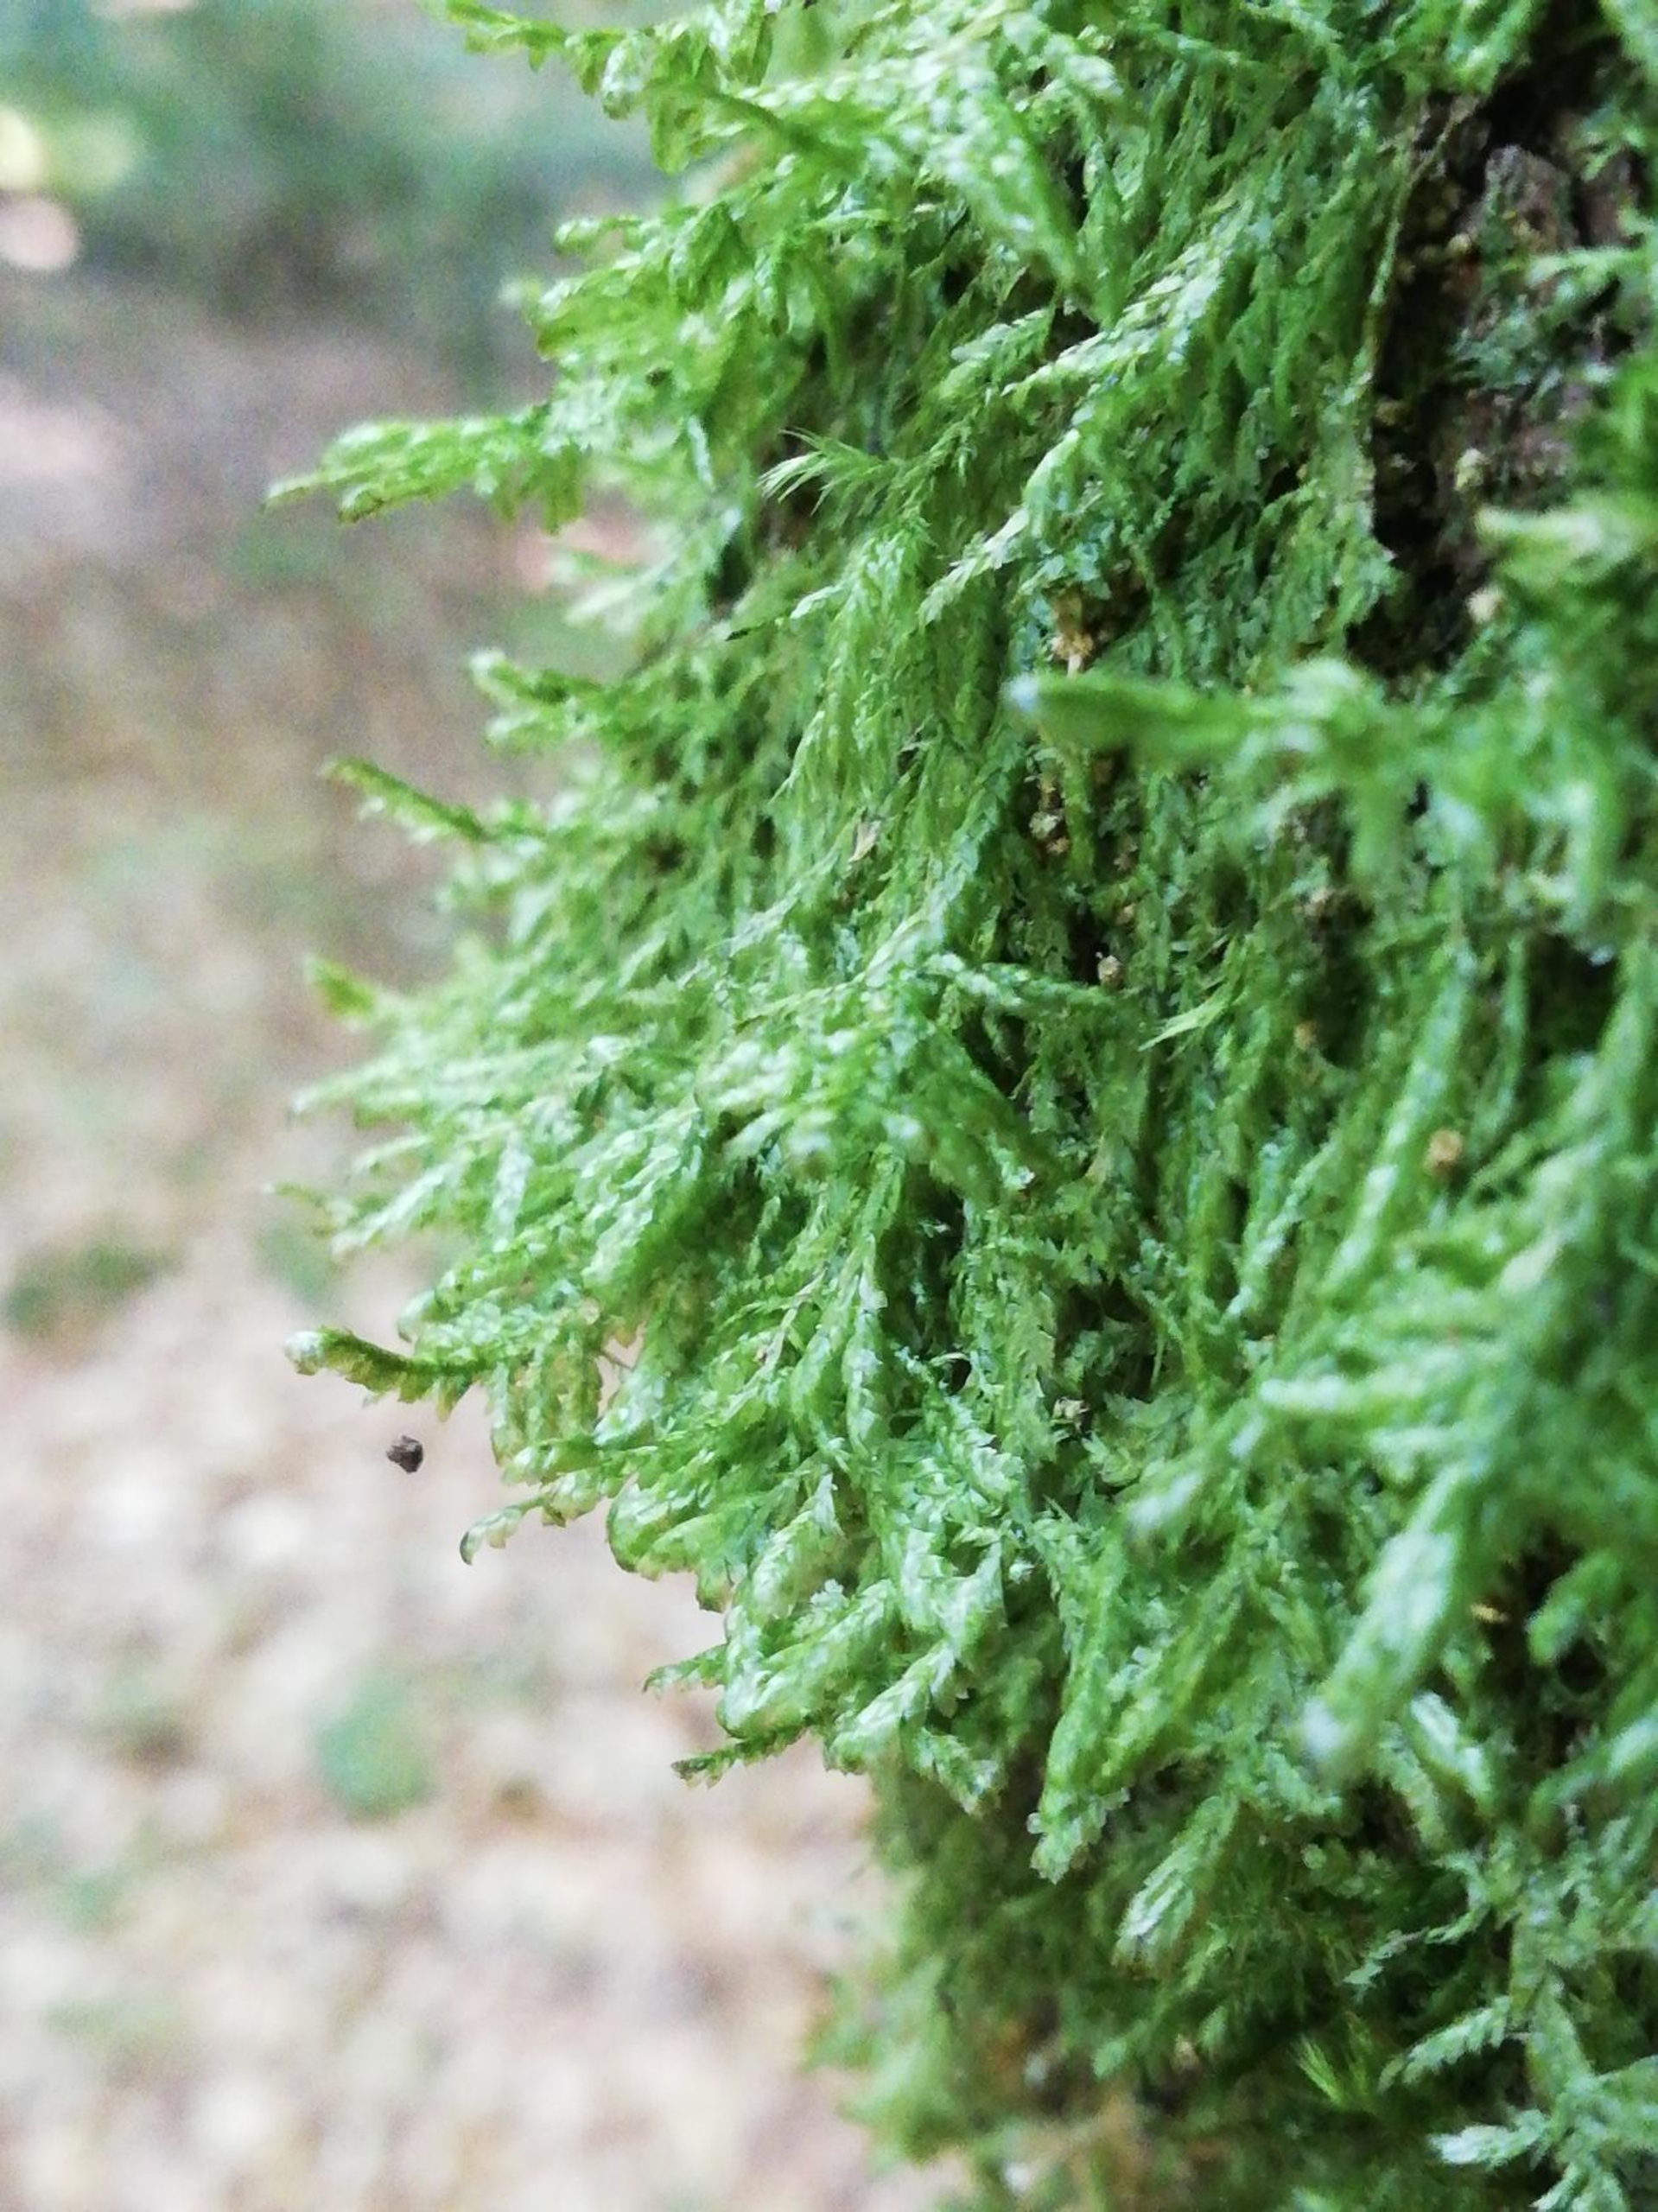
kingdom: Plantae
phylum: Bryophyta
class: Bryopsida
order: Hypnales
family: Neckeraceae
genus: Alleniella
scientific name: Alleniella complanata
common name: Almindelig fladmos
